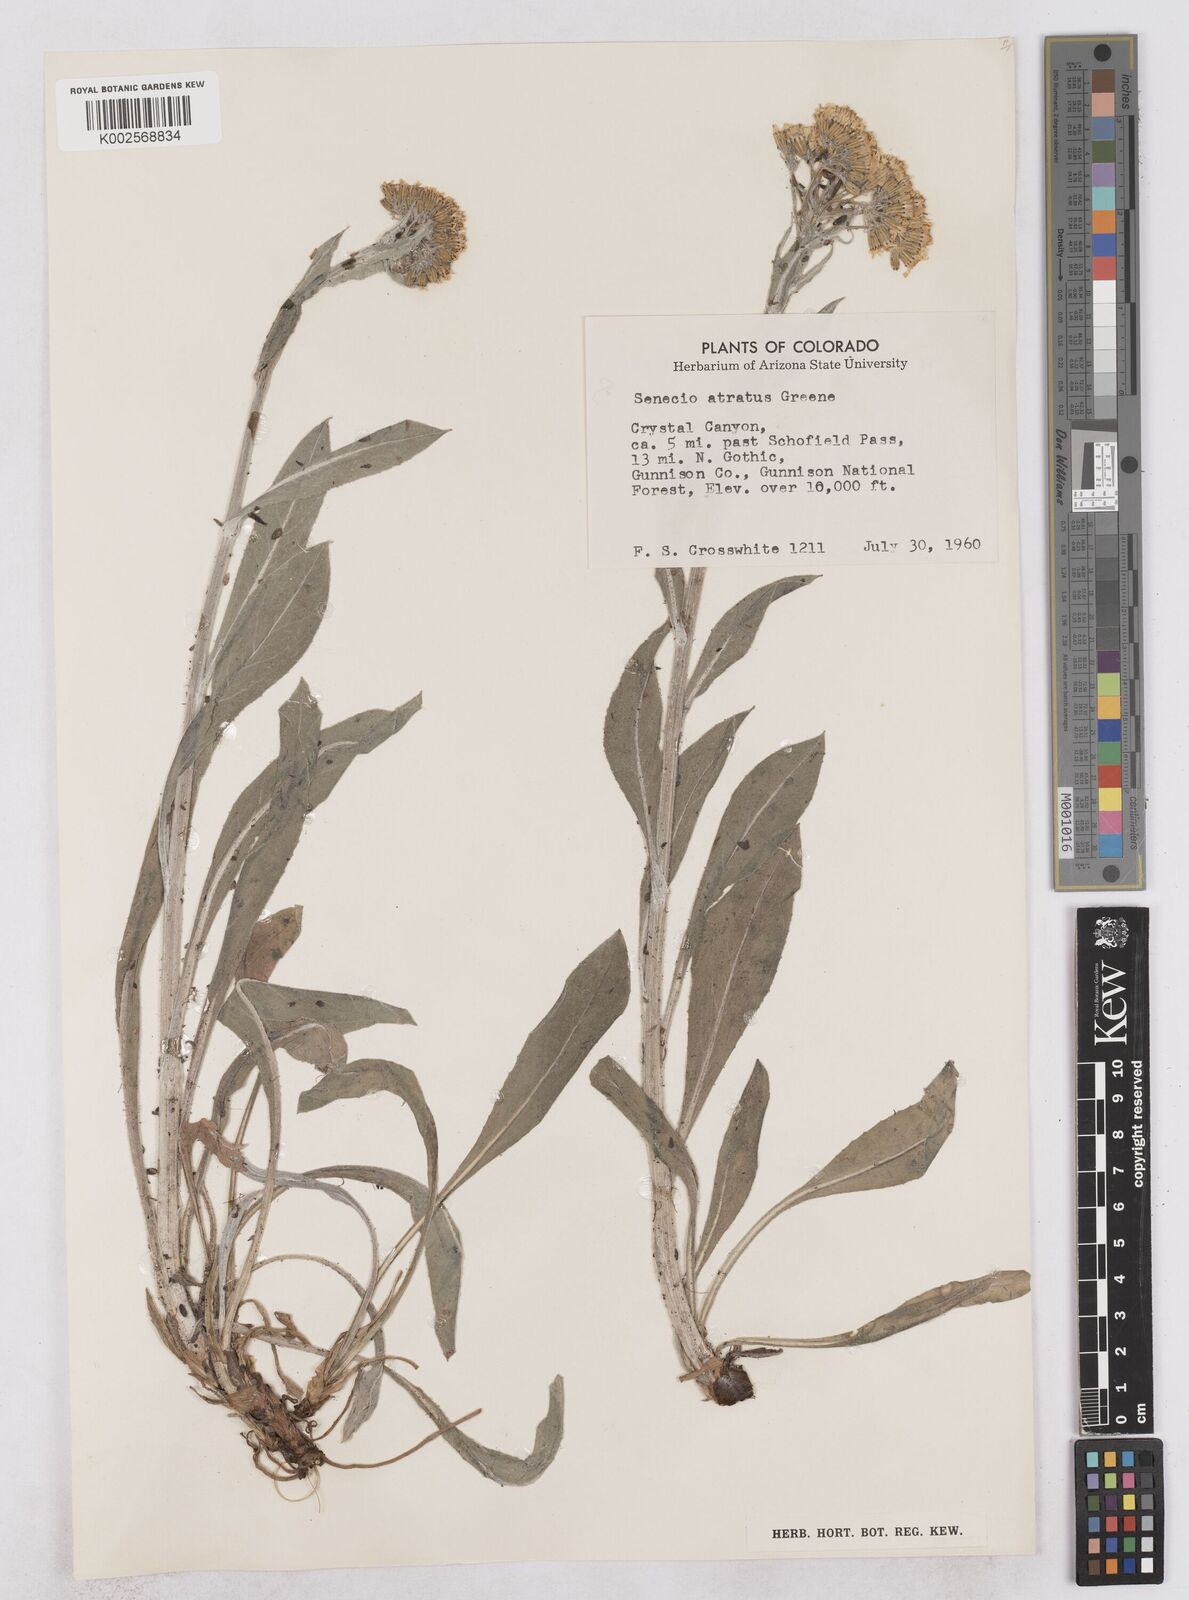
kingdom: Plantae
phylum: Tracheophyta
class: Magnoliopsida
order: Asterales
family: Asteraceae
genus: Senecio
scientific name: Senecio atratus
